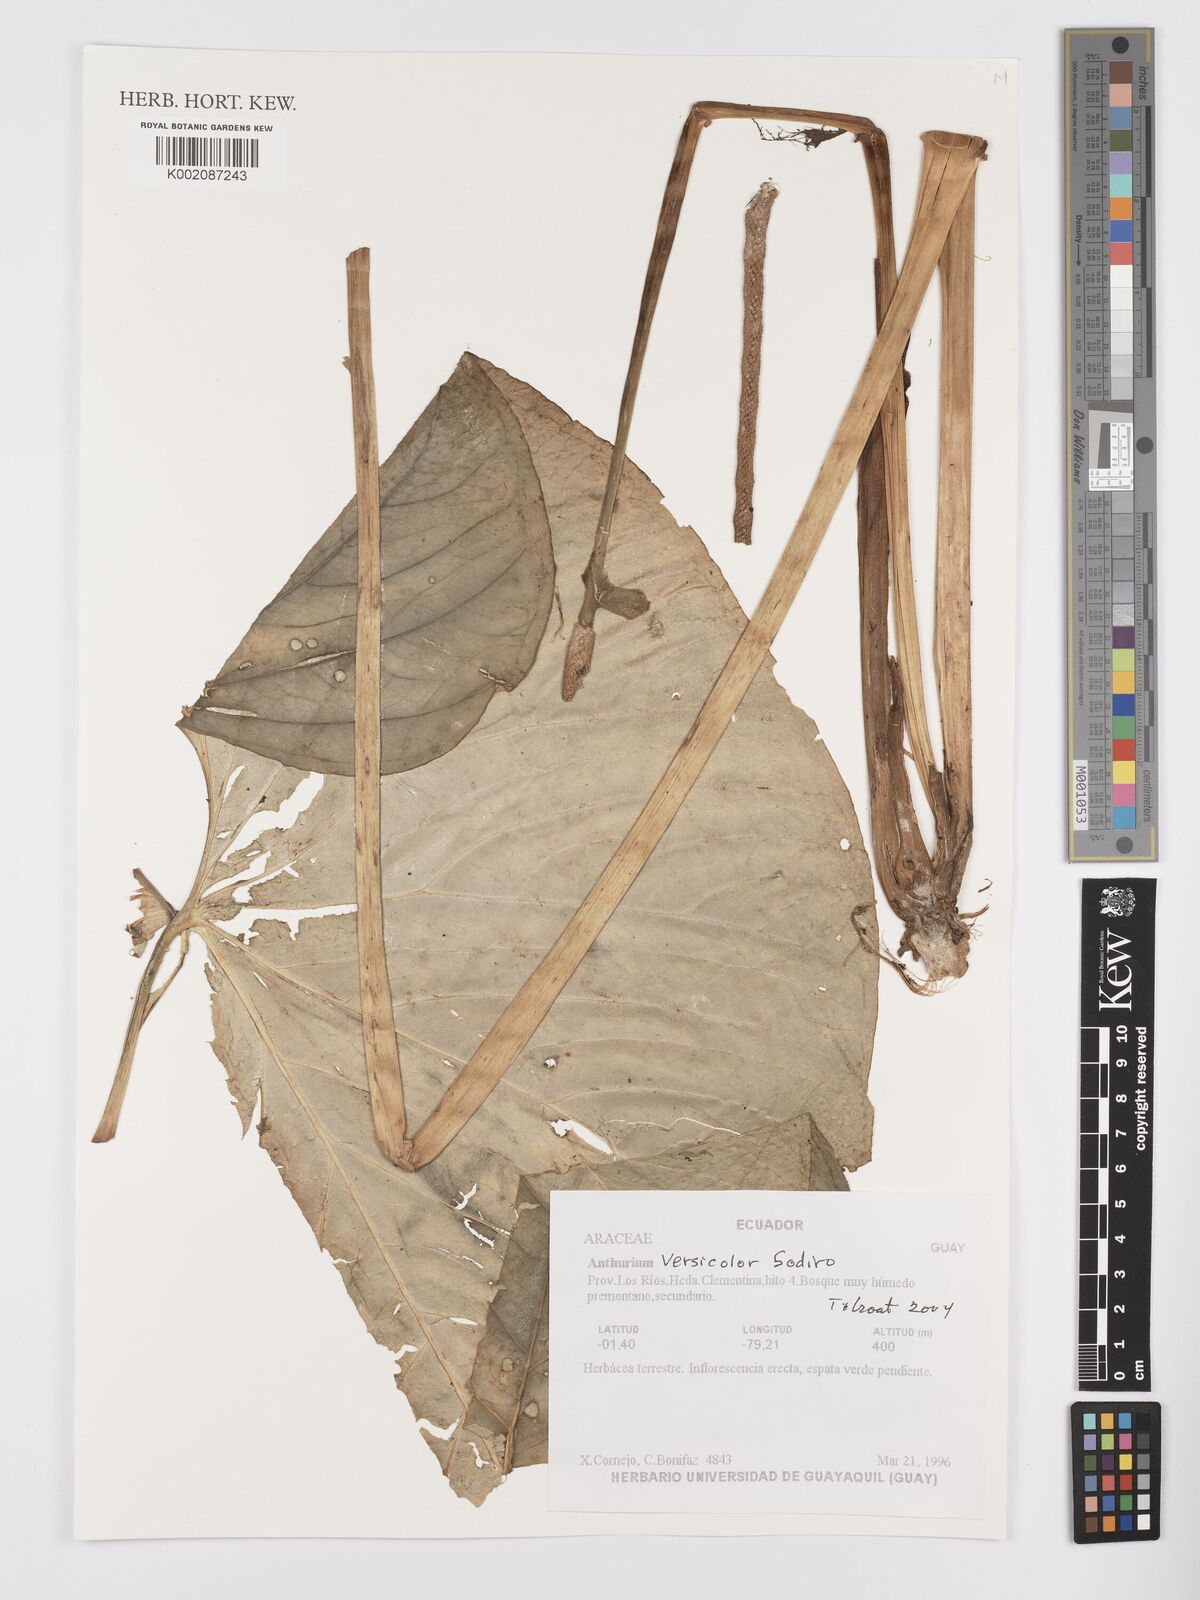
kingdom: Plantae
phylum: Tracheophyta
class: Liliopsida
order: Alismatales
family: Araceae
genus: Anthurium
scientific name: Anthurium versicolor
